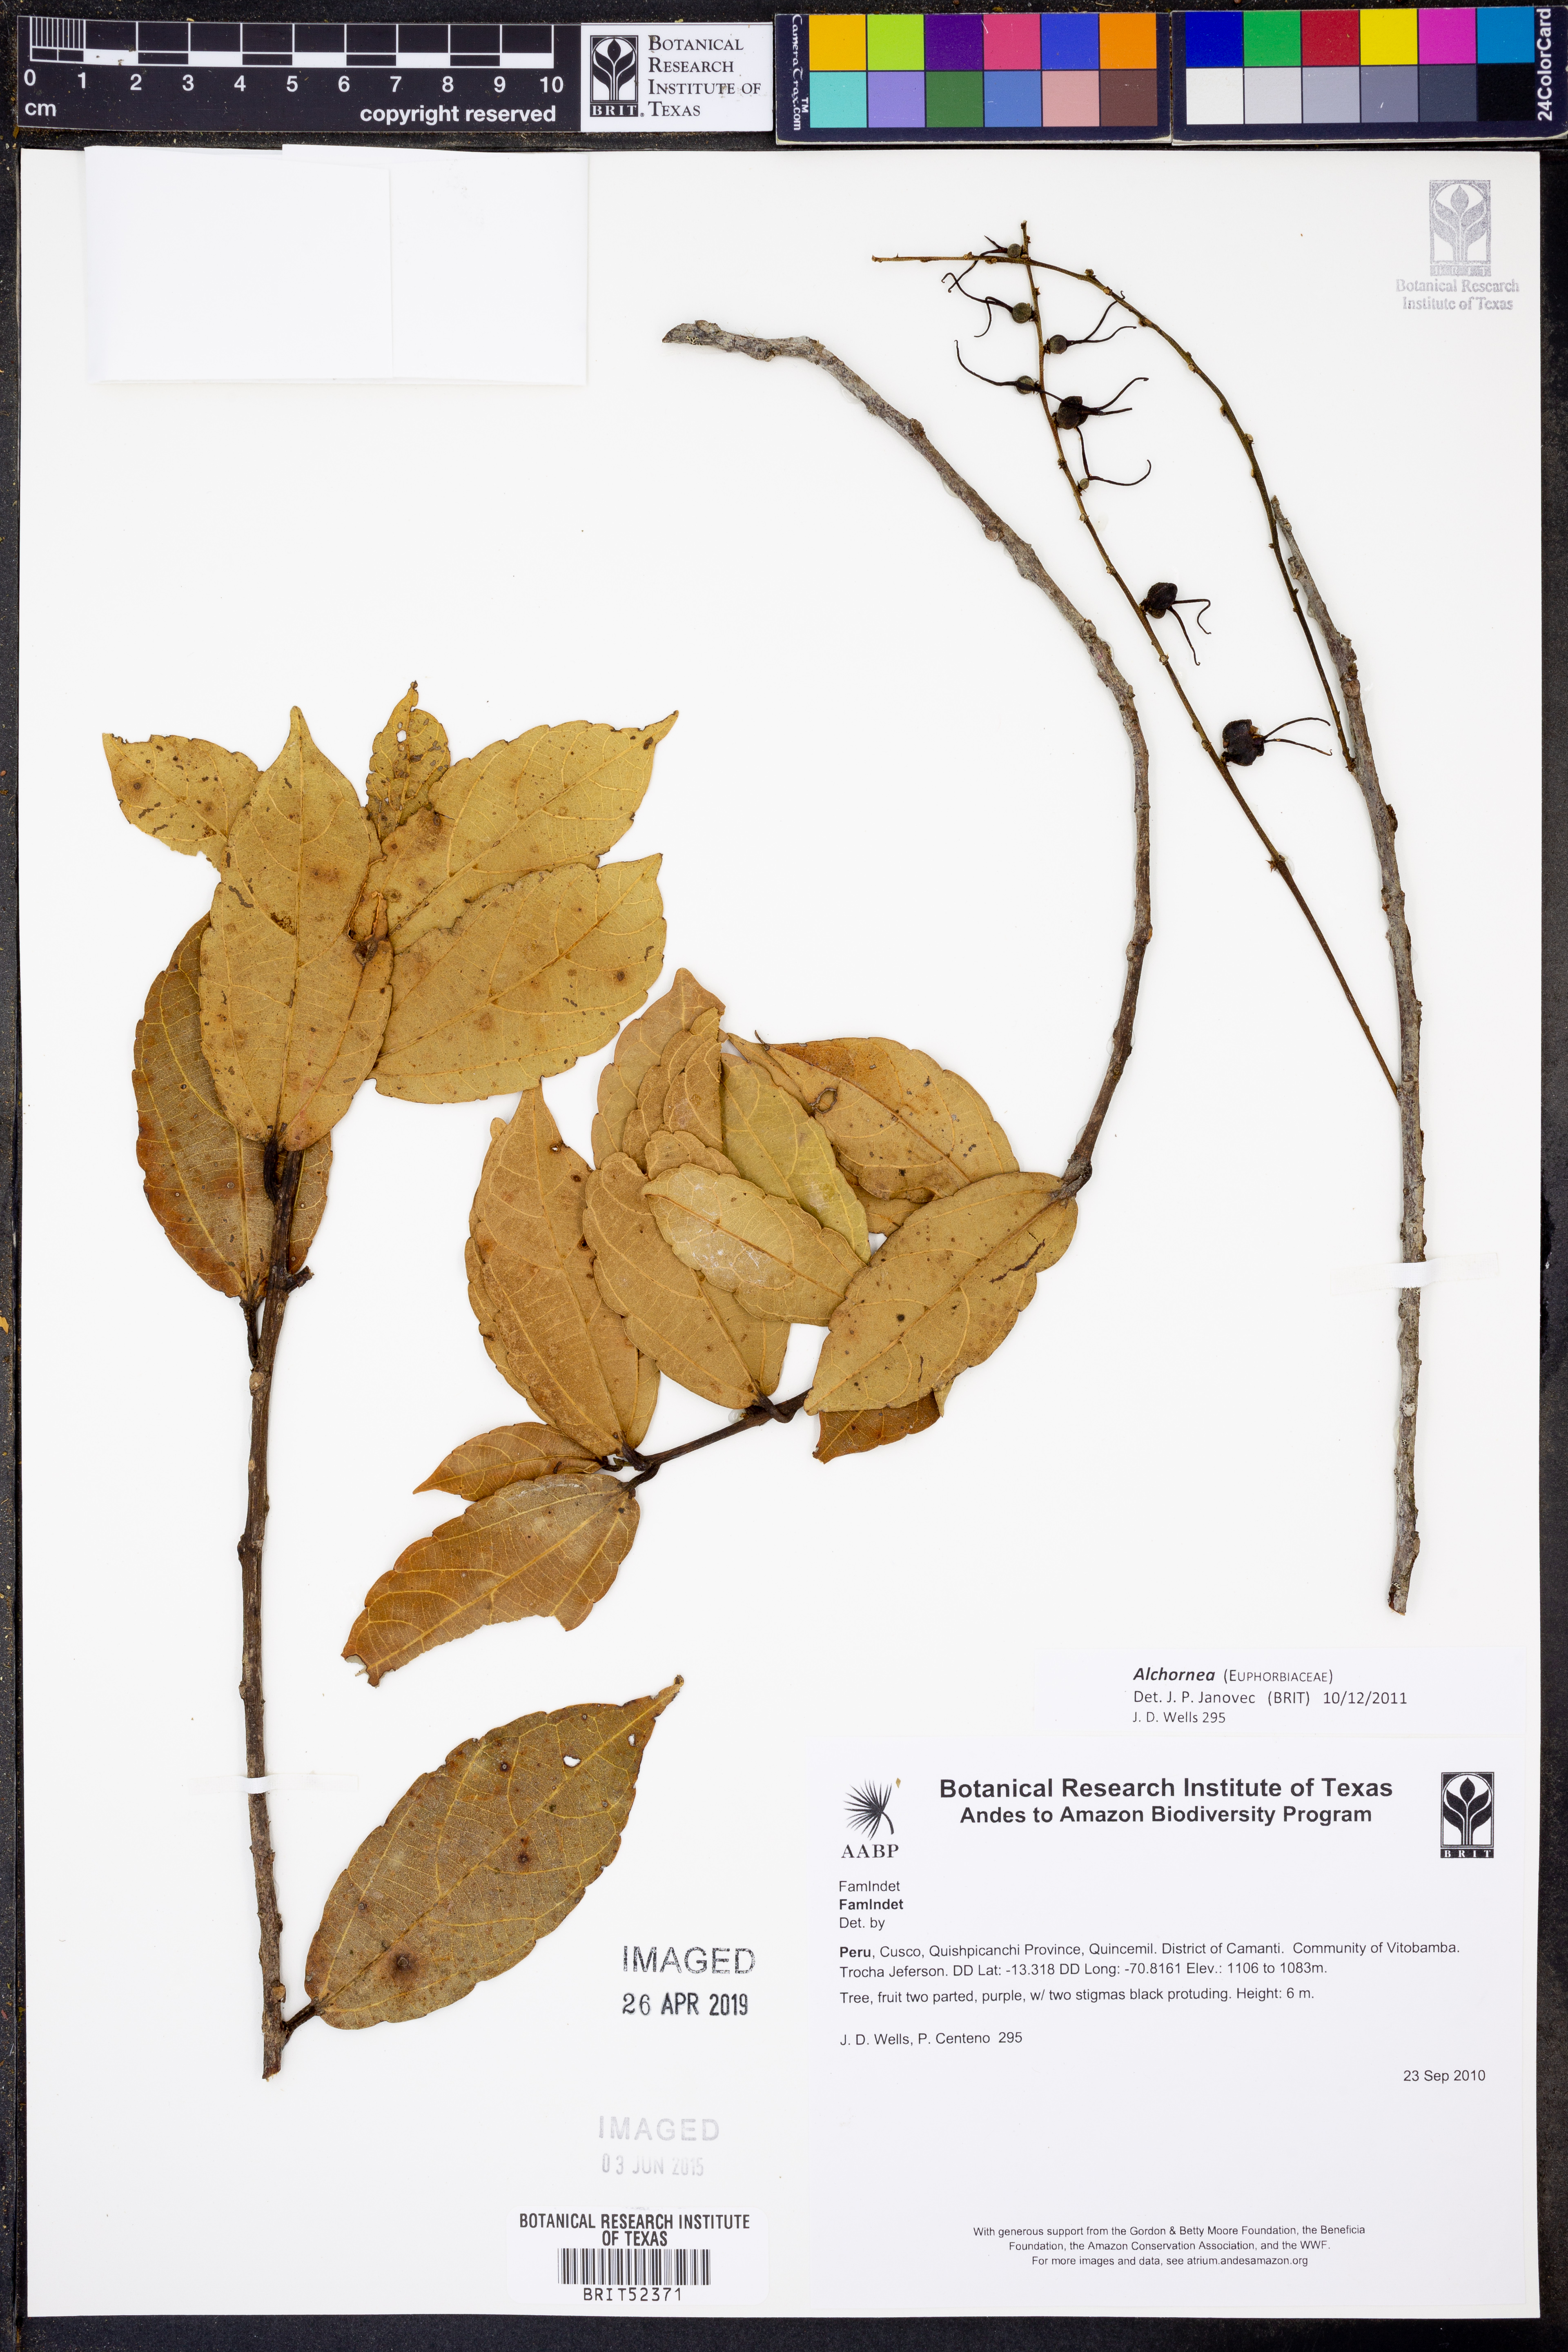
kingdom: Plantae
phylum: Tracheophyta
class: Magnoliopsida
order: Malpighiales
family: Euphorbiaceae
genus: Alchornea
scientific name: Alchornea
